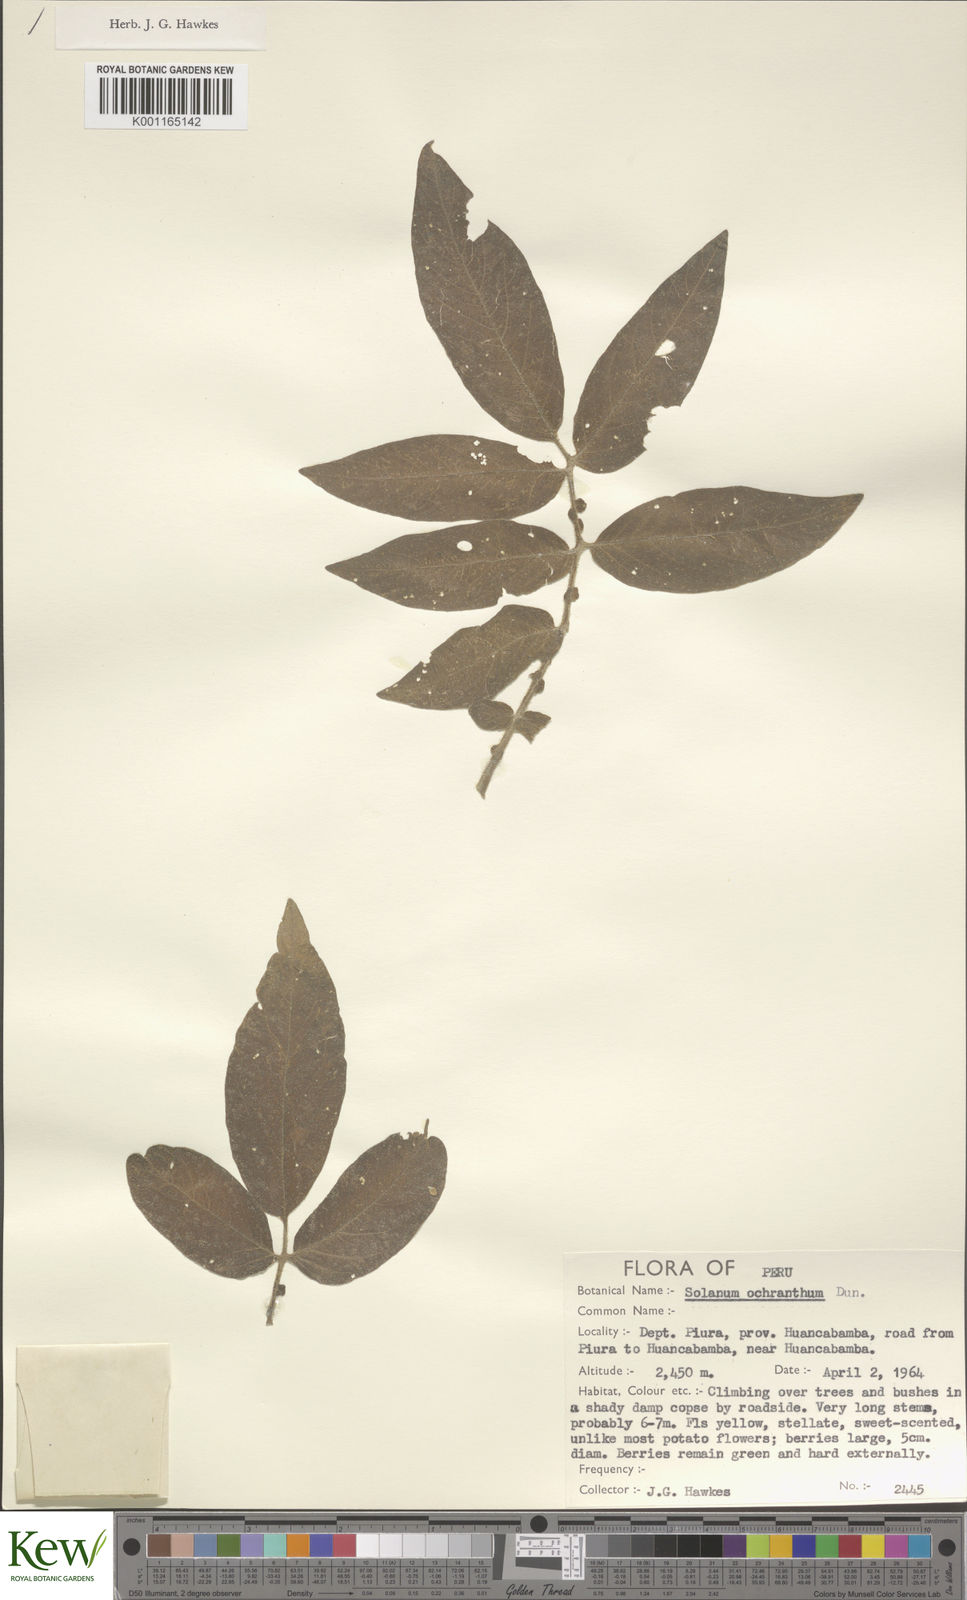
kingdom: Plantae
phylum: Tracheophyta
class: Magnoliopsida
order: Solanales
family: Solanaceae
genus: Solanum
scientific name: Solanum ochranthum
